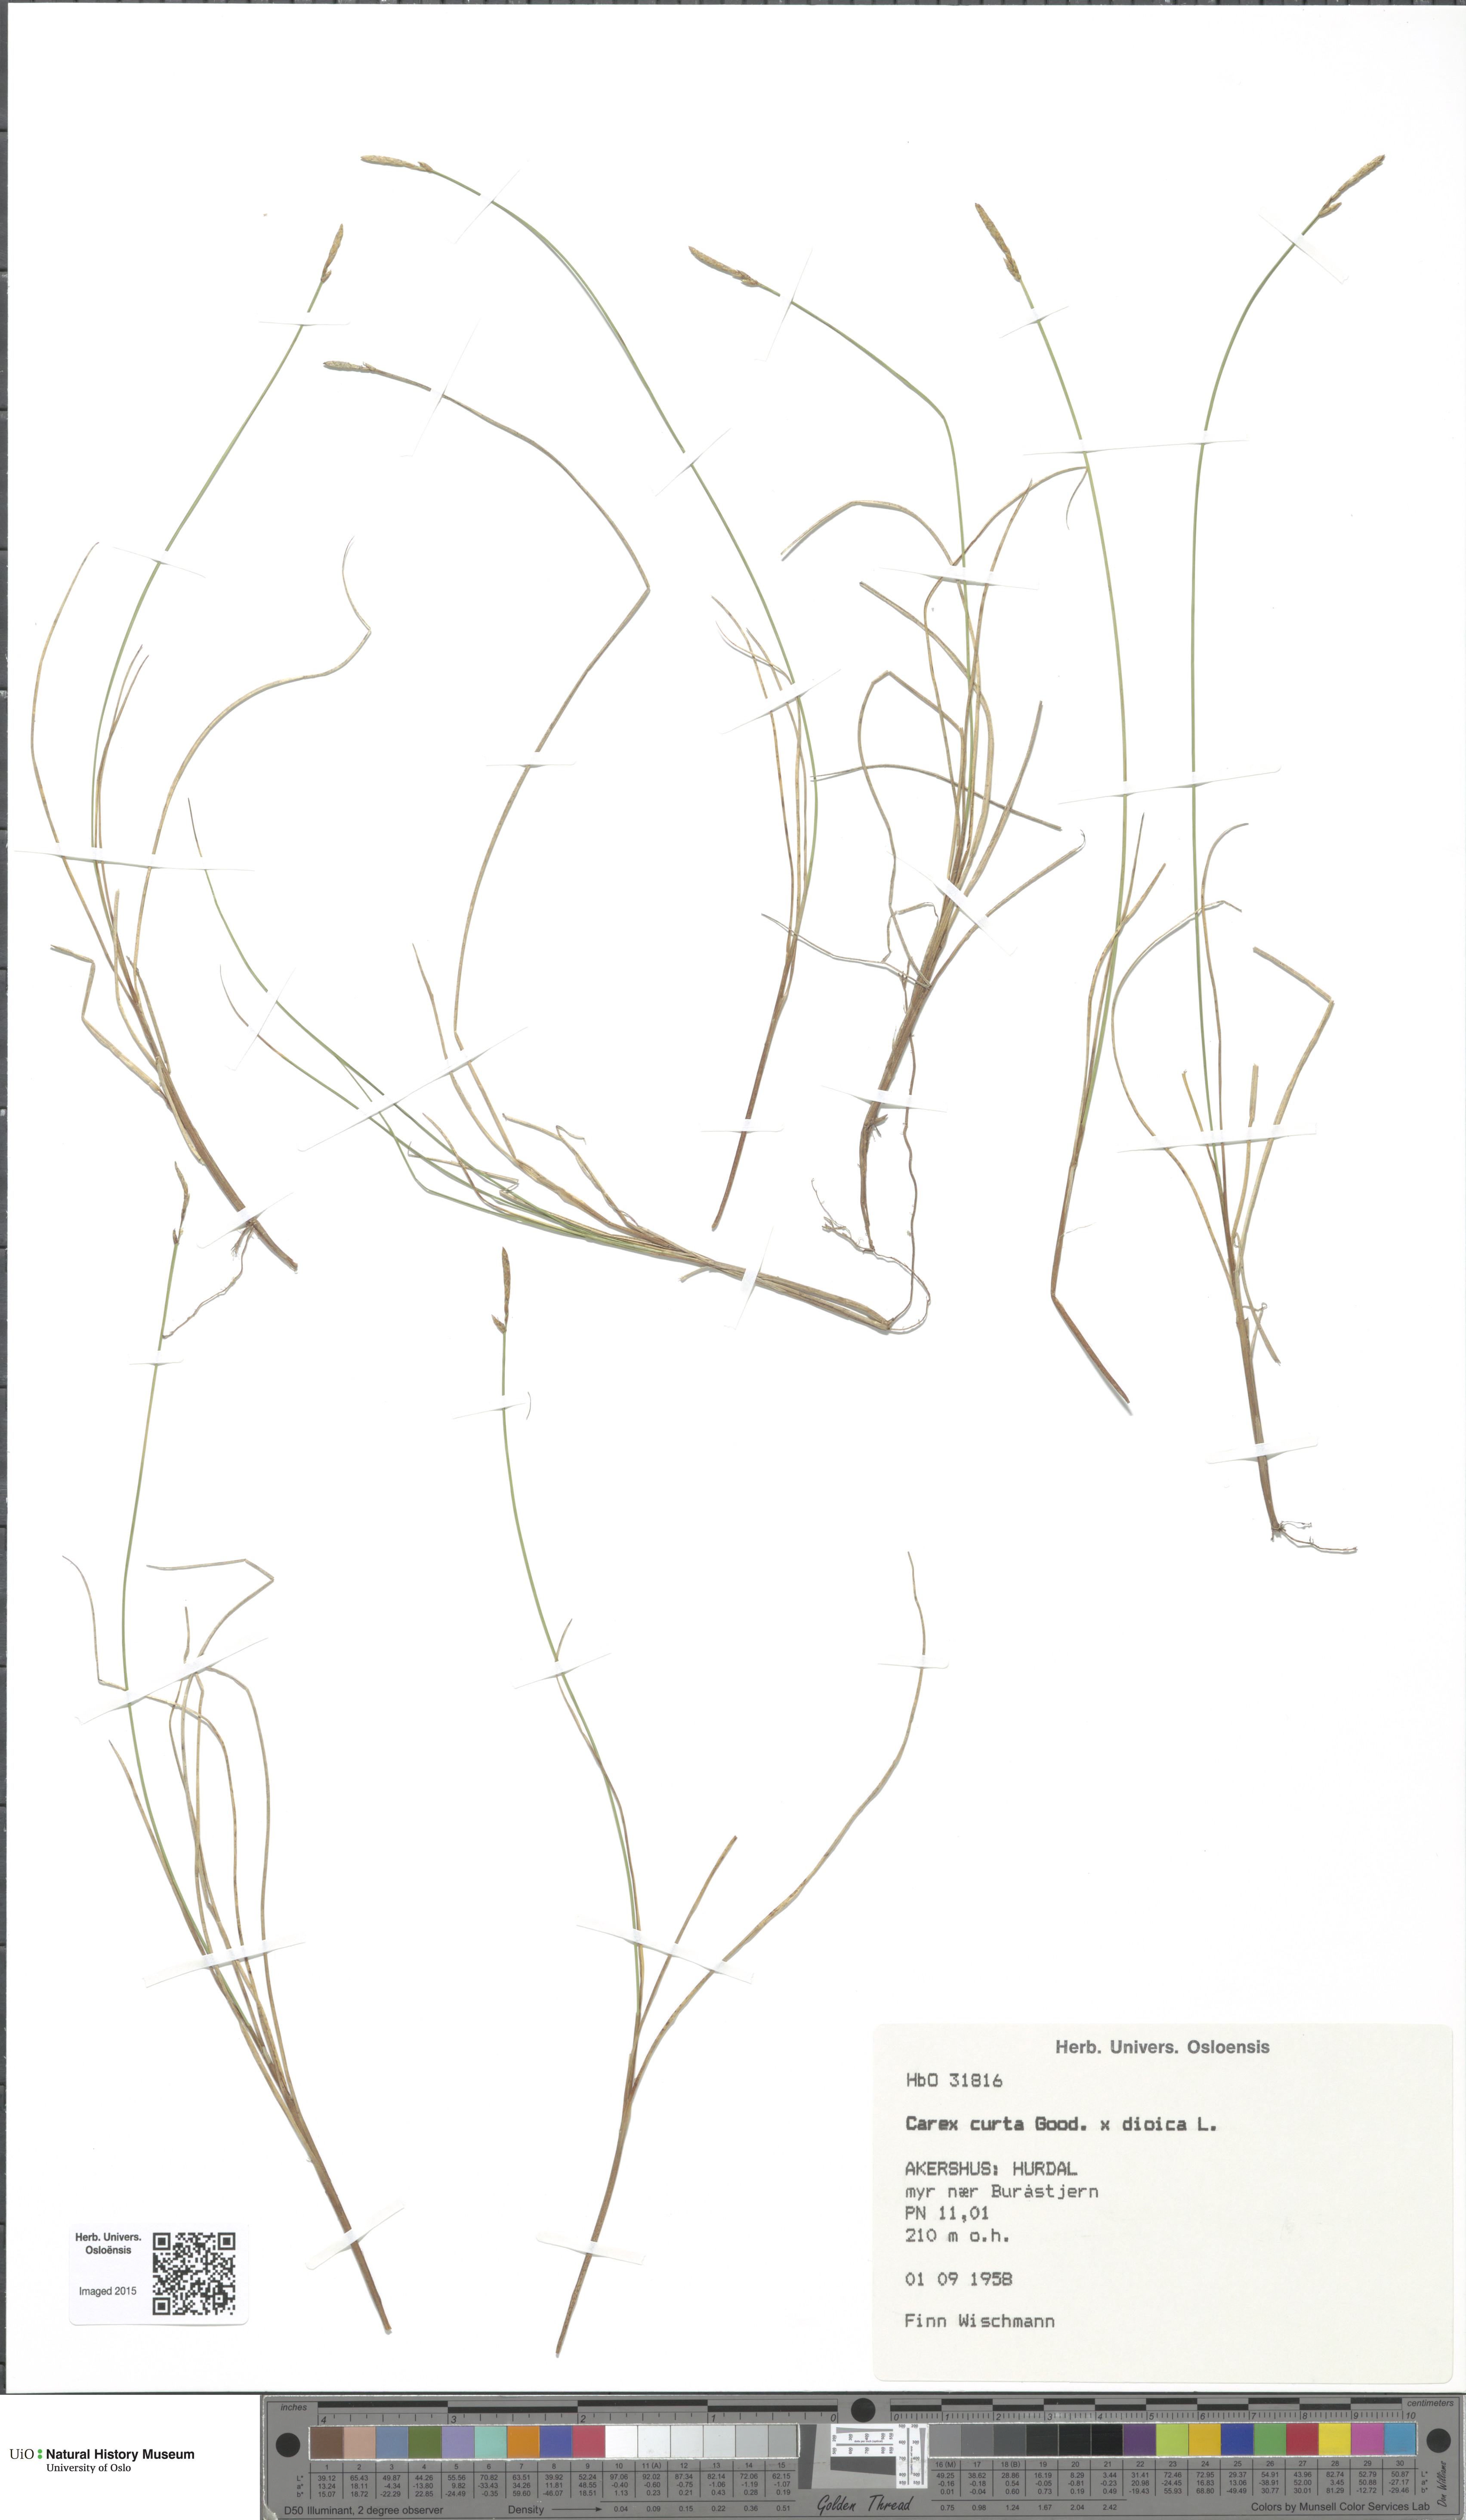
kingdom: Plantae
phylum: Tracheophyta
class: Liliopsida
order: Poales
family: Cyperaceae
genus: Carex
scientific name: Carex
